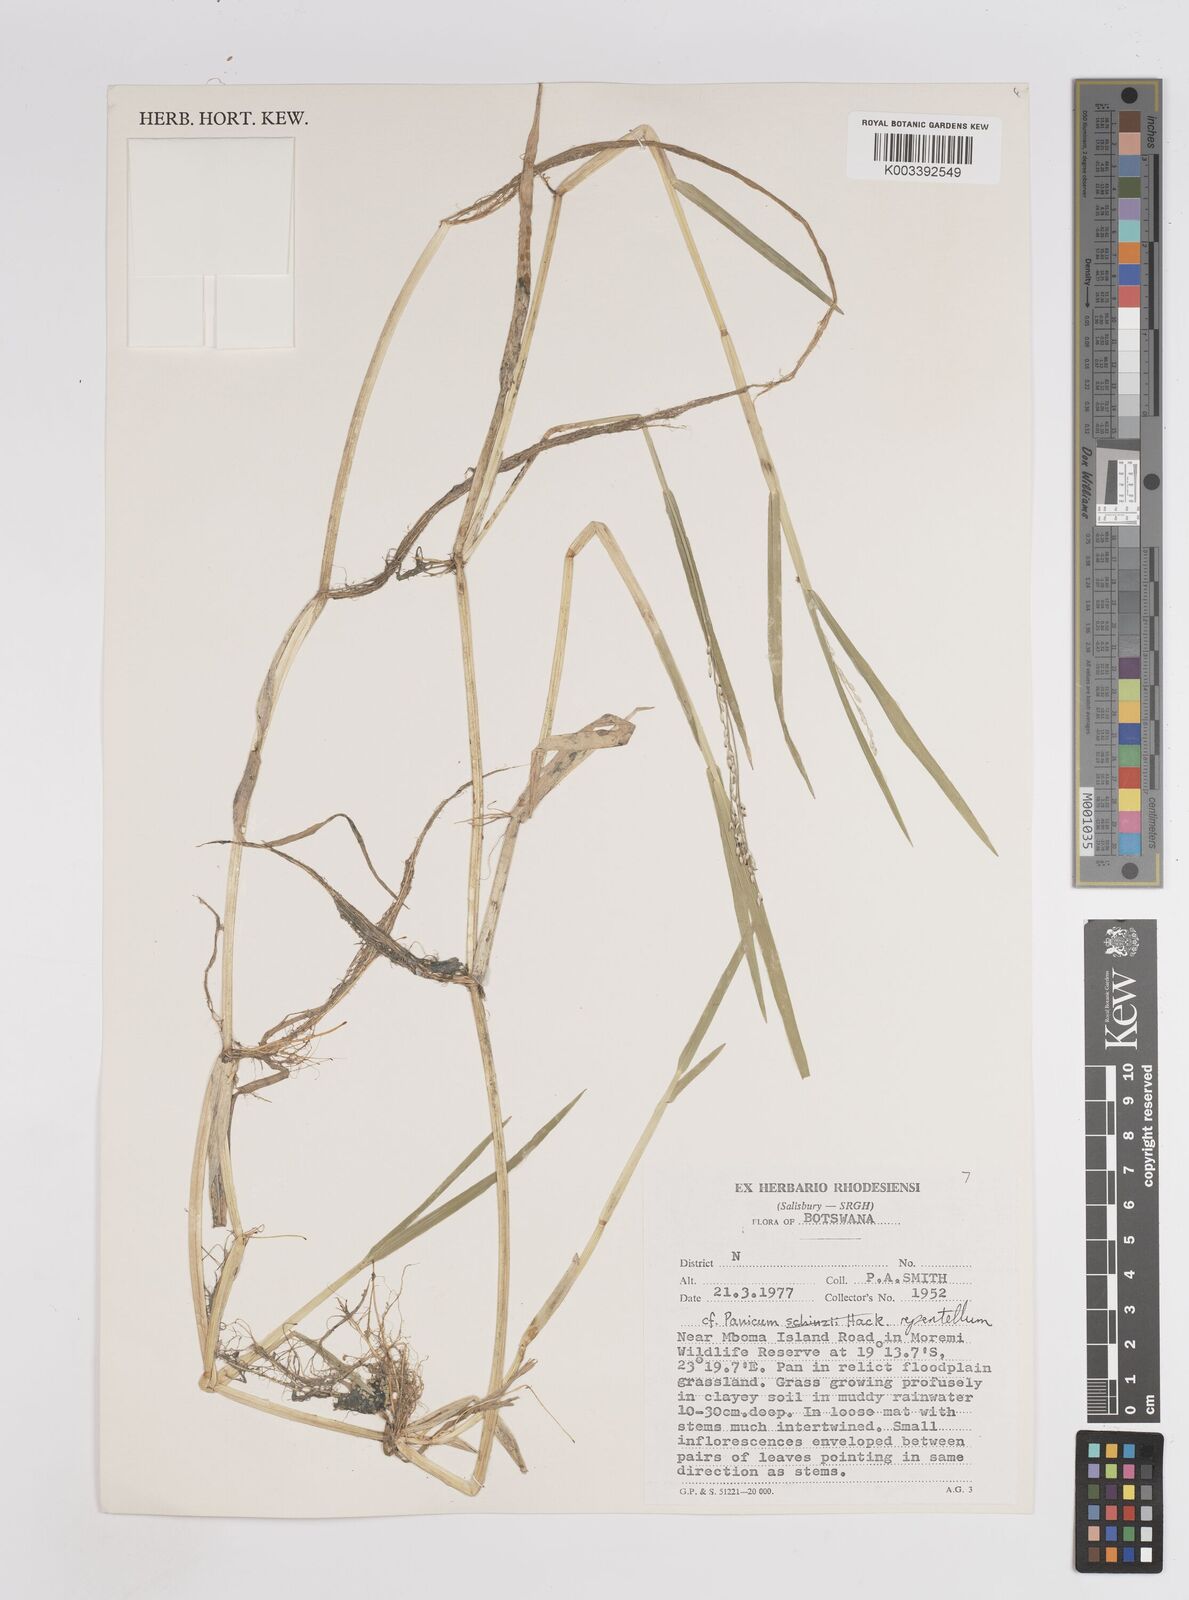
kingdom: Plantae
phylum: Tracheophyta
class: Liliopsida
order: Poales
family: Poaceae
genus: Panicum
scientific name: Panicum hygrocharis
